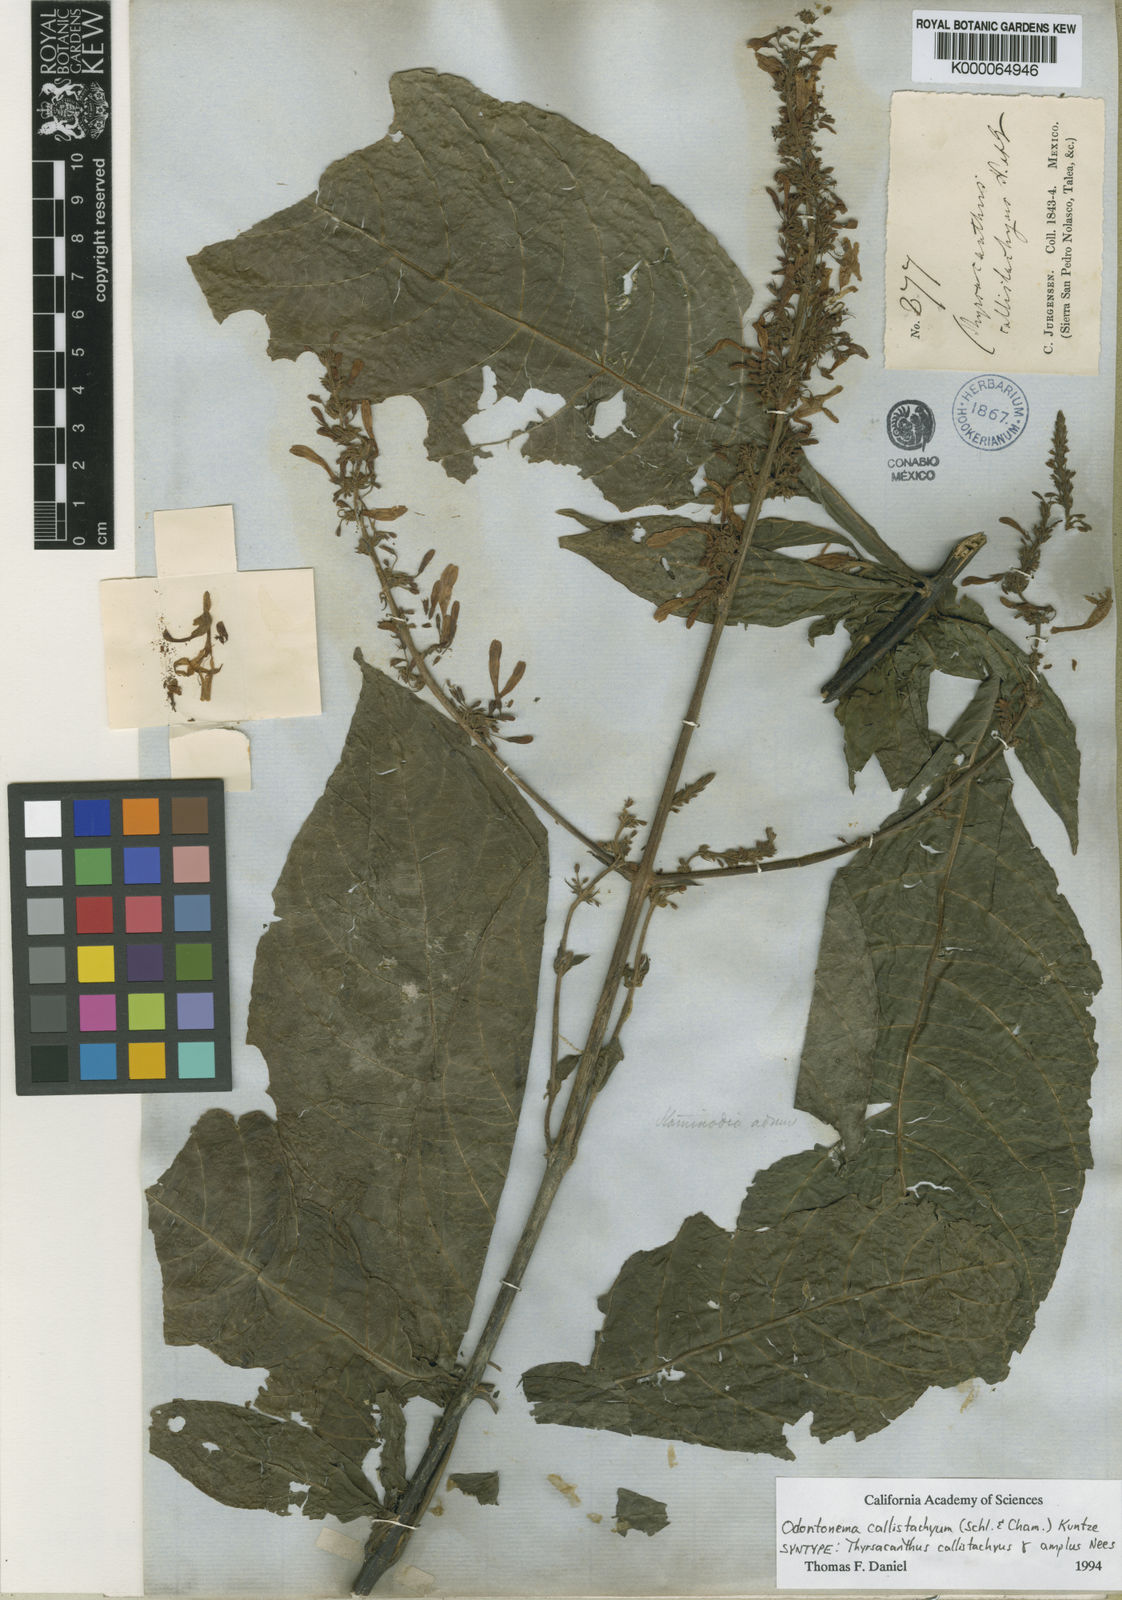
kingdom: Plantae
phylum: Tracheophyta
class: Magnoliopsida
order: Lamiales
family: Acanthaceae
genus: Odontonema
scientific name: Odontonema callistachyum
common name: Firespike
